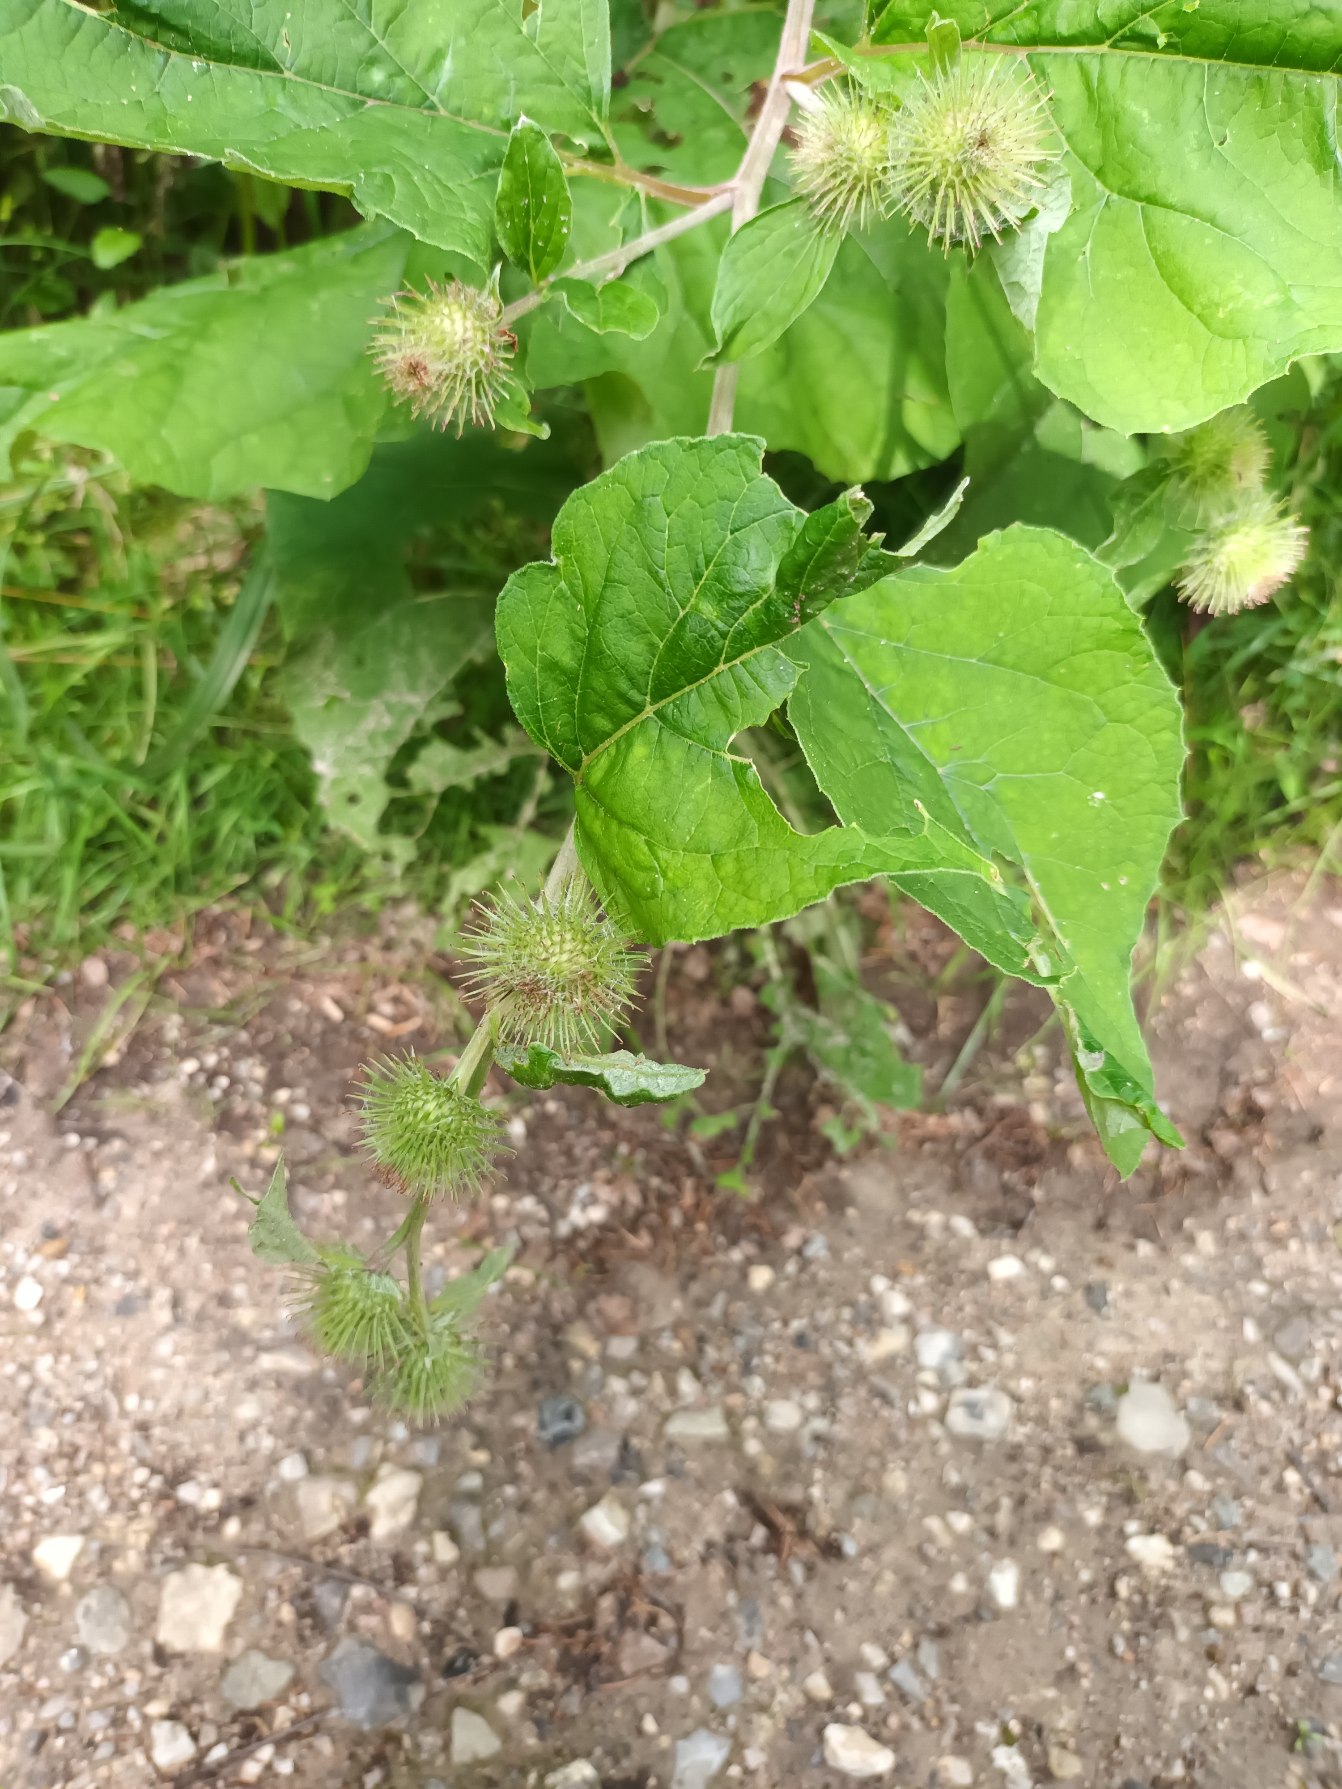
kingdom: Plantae
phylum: Tracheophyta
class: Magnoliopsida
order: Asterales
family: Asteraceae
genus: Arctium
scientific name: Arctium nemorosum
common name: Skov-burre
